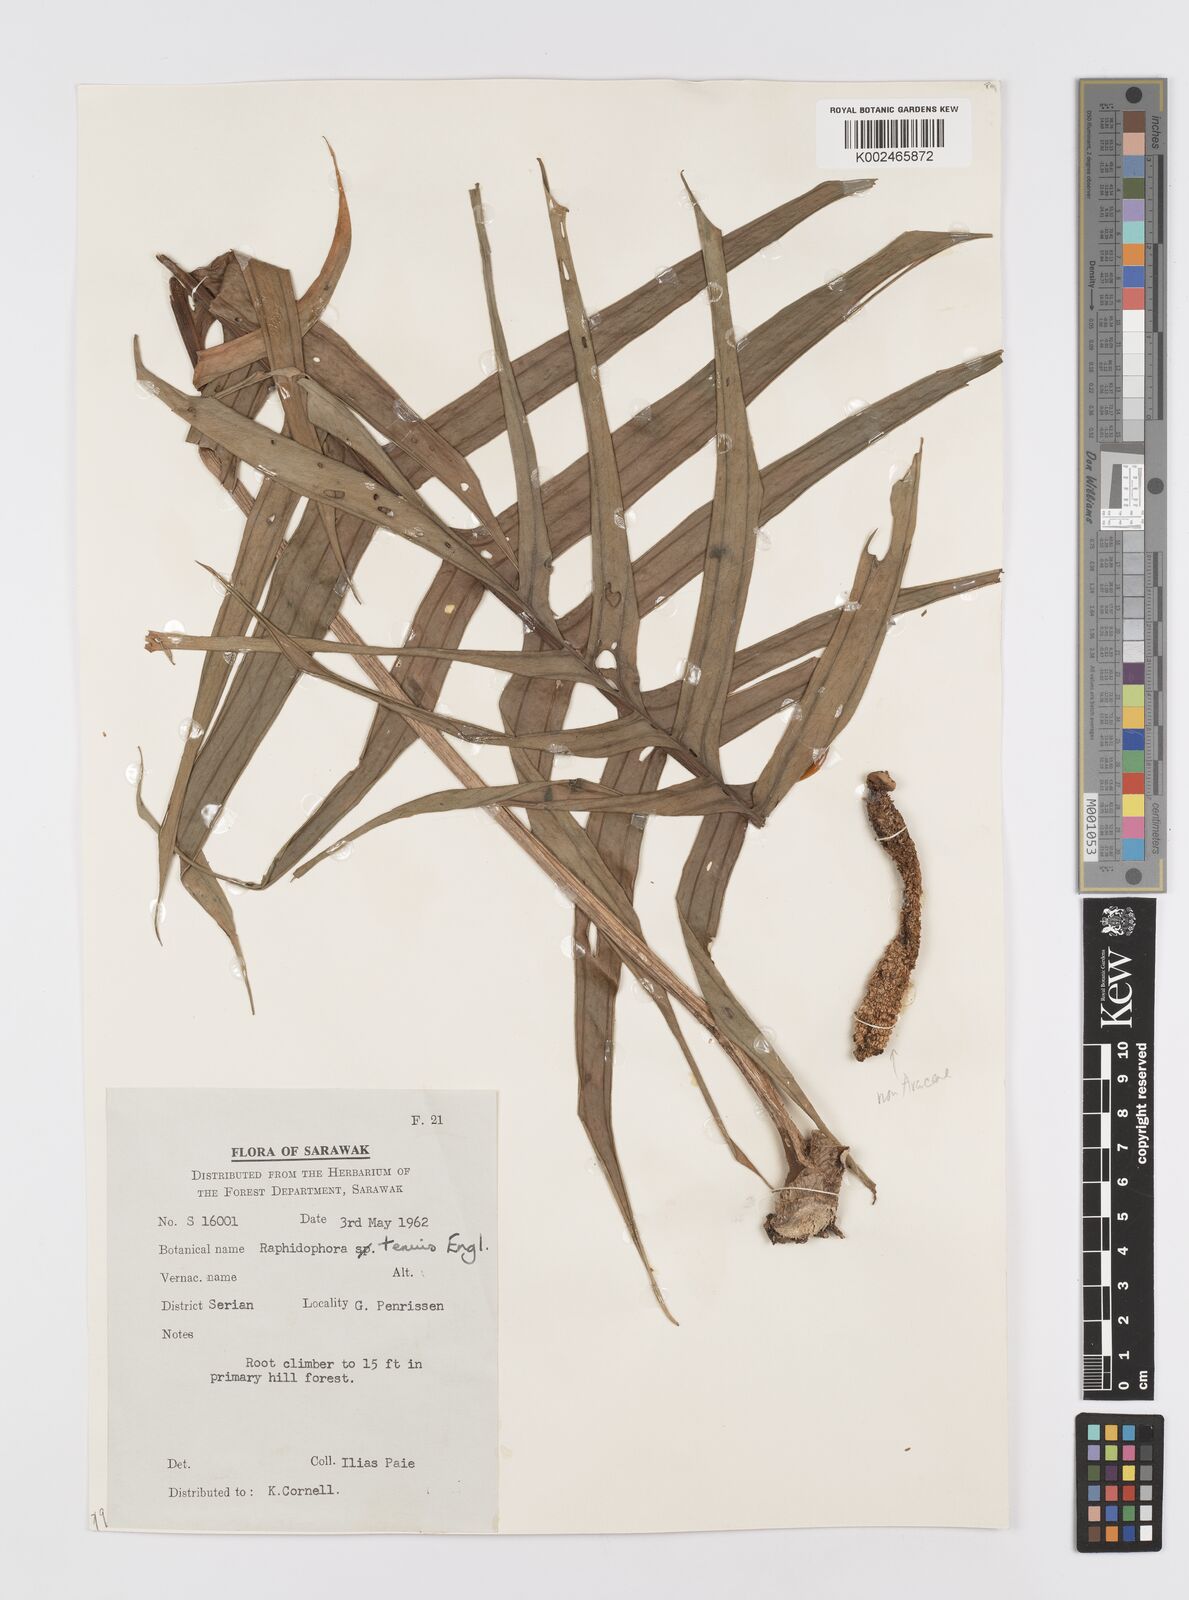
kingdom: Plantae
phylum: Tracheophyta
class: Liliopsida
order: Alismatales
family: Araceae
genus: Rhaphidophora
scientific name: Rhaphidophora korthalsii
